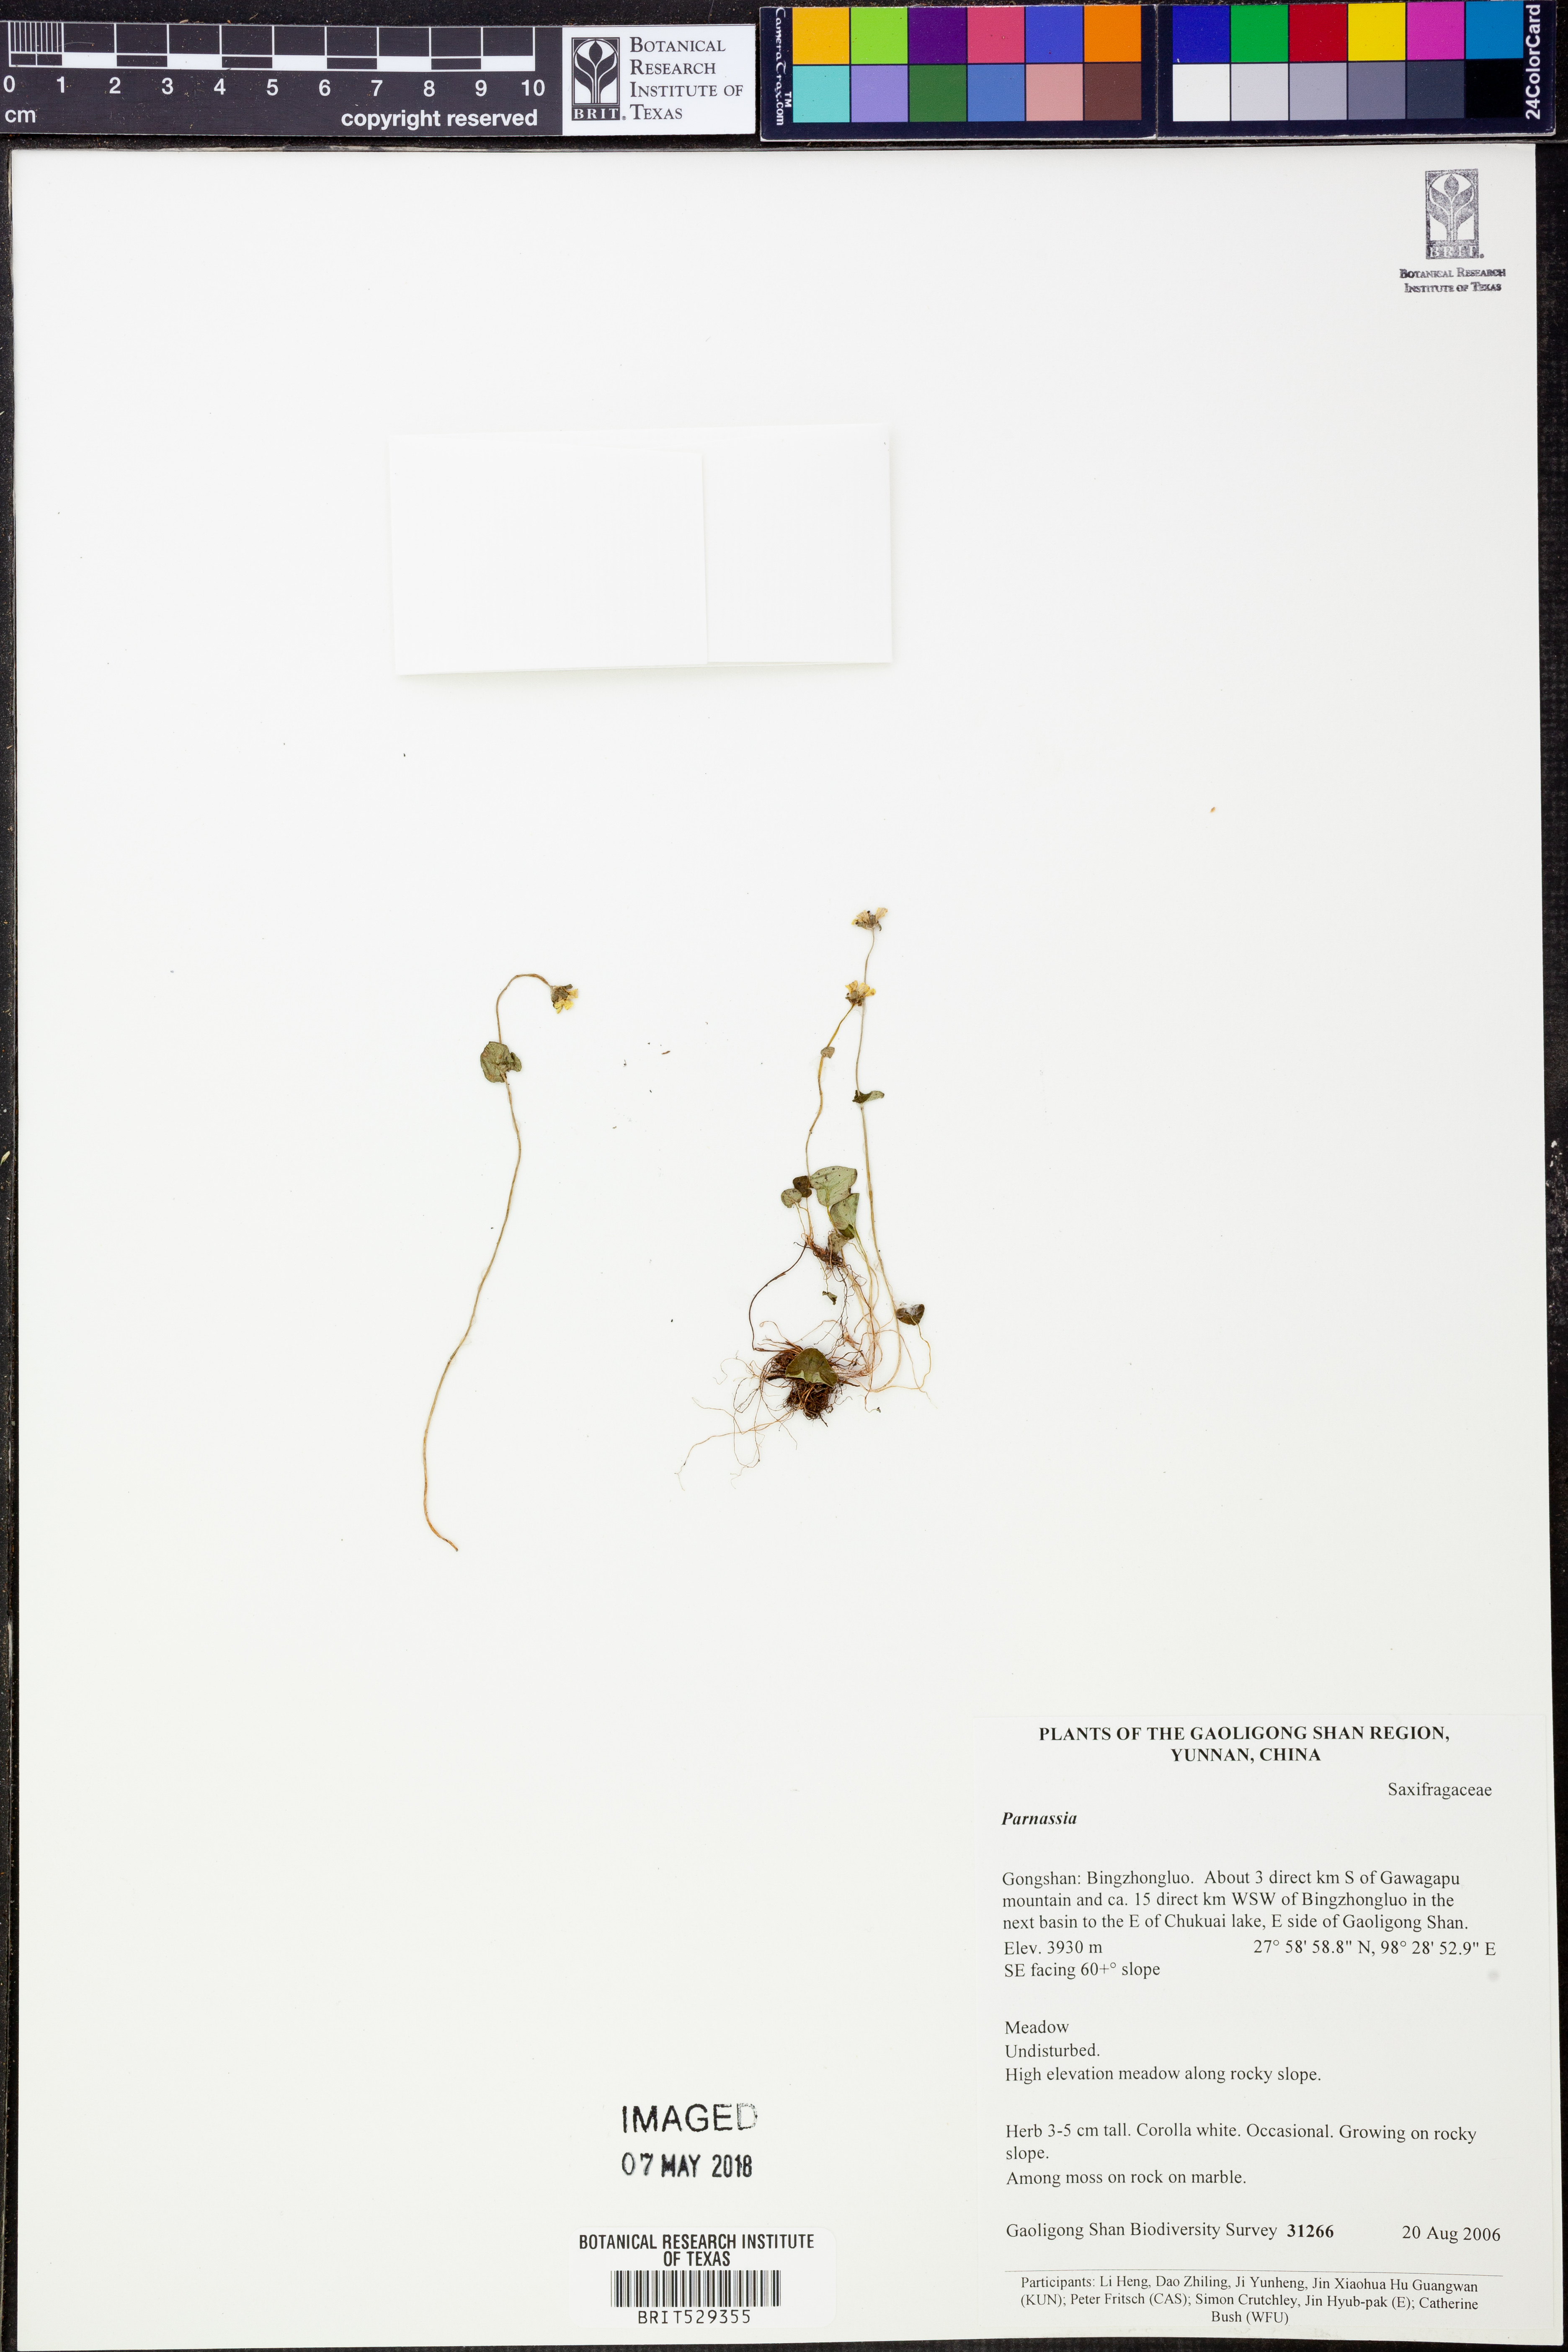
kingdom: Plantae
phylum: Tracheophyta
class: Magnoliopsida
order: Celastrales
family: Parnassiaceae
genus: Parnassia
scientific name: Parnassia
